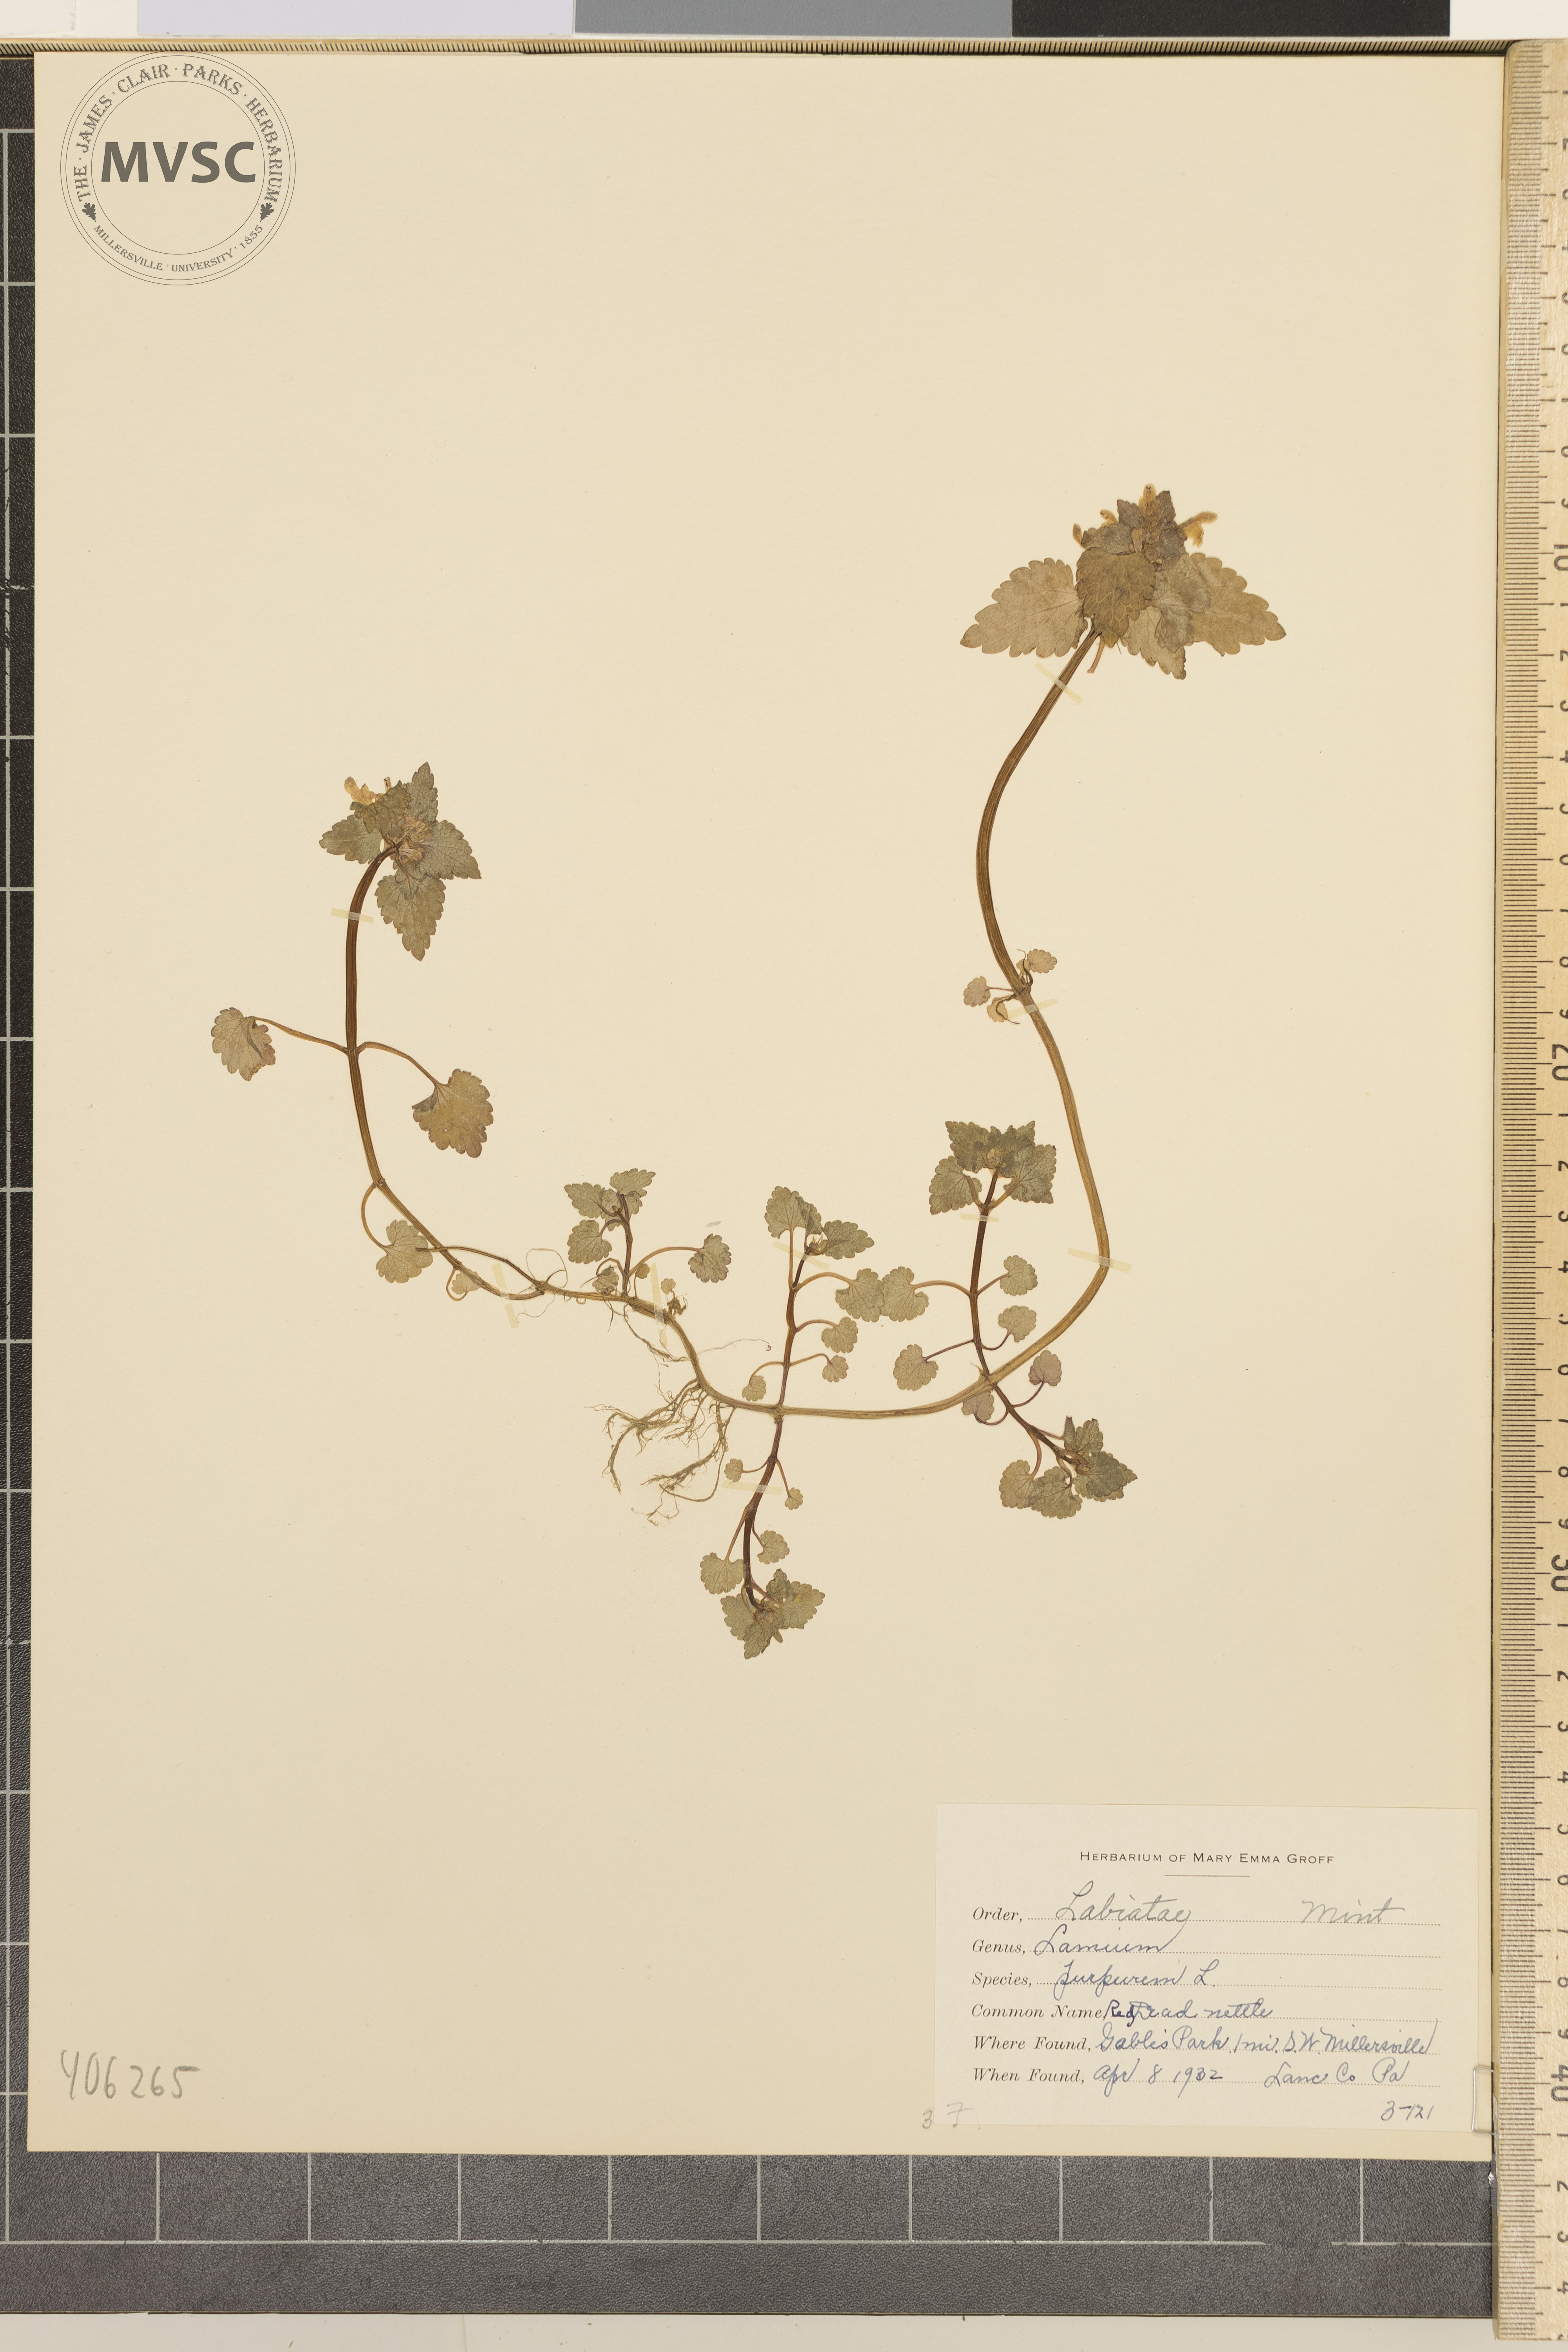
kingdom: Plantae
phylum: Tracheophyta
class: Magnoliopsida
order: Lamiales
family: Lamiaceae
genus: Lamium
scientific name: Lamium purpureum
